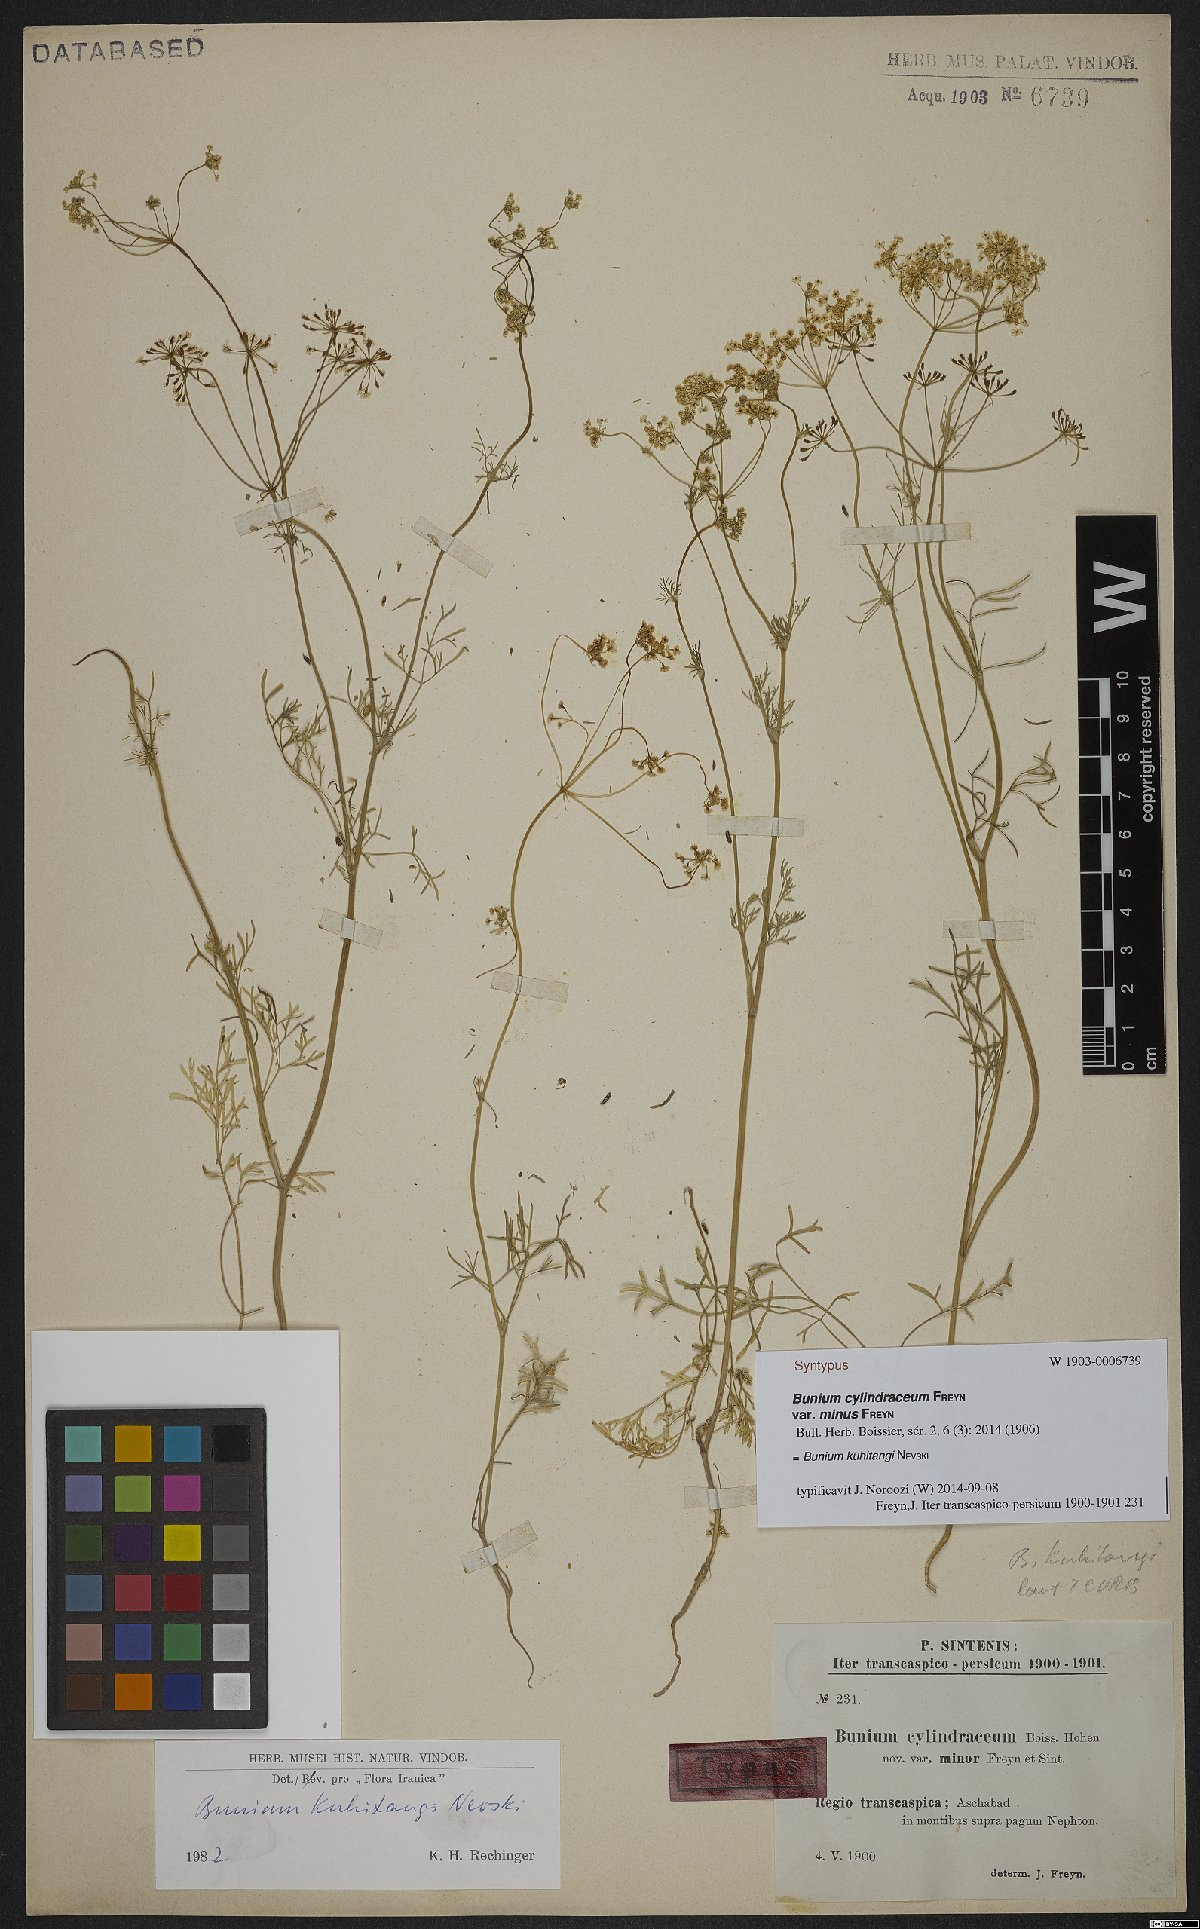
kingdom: Plantae
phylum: Tracheophyta
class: Magnoliopsida
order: Apiales
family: Apiaceae
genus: Elwendia
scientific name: Elwendia kuhitangi
